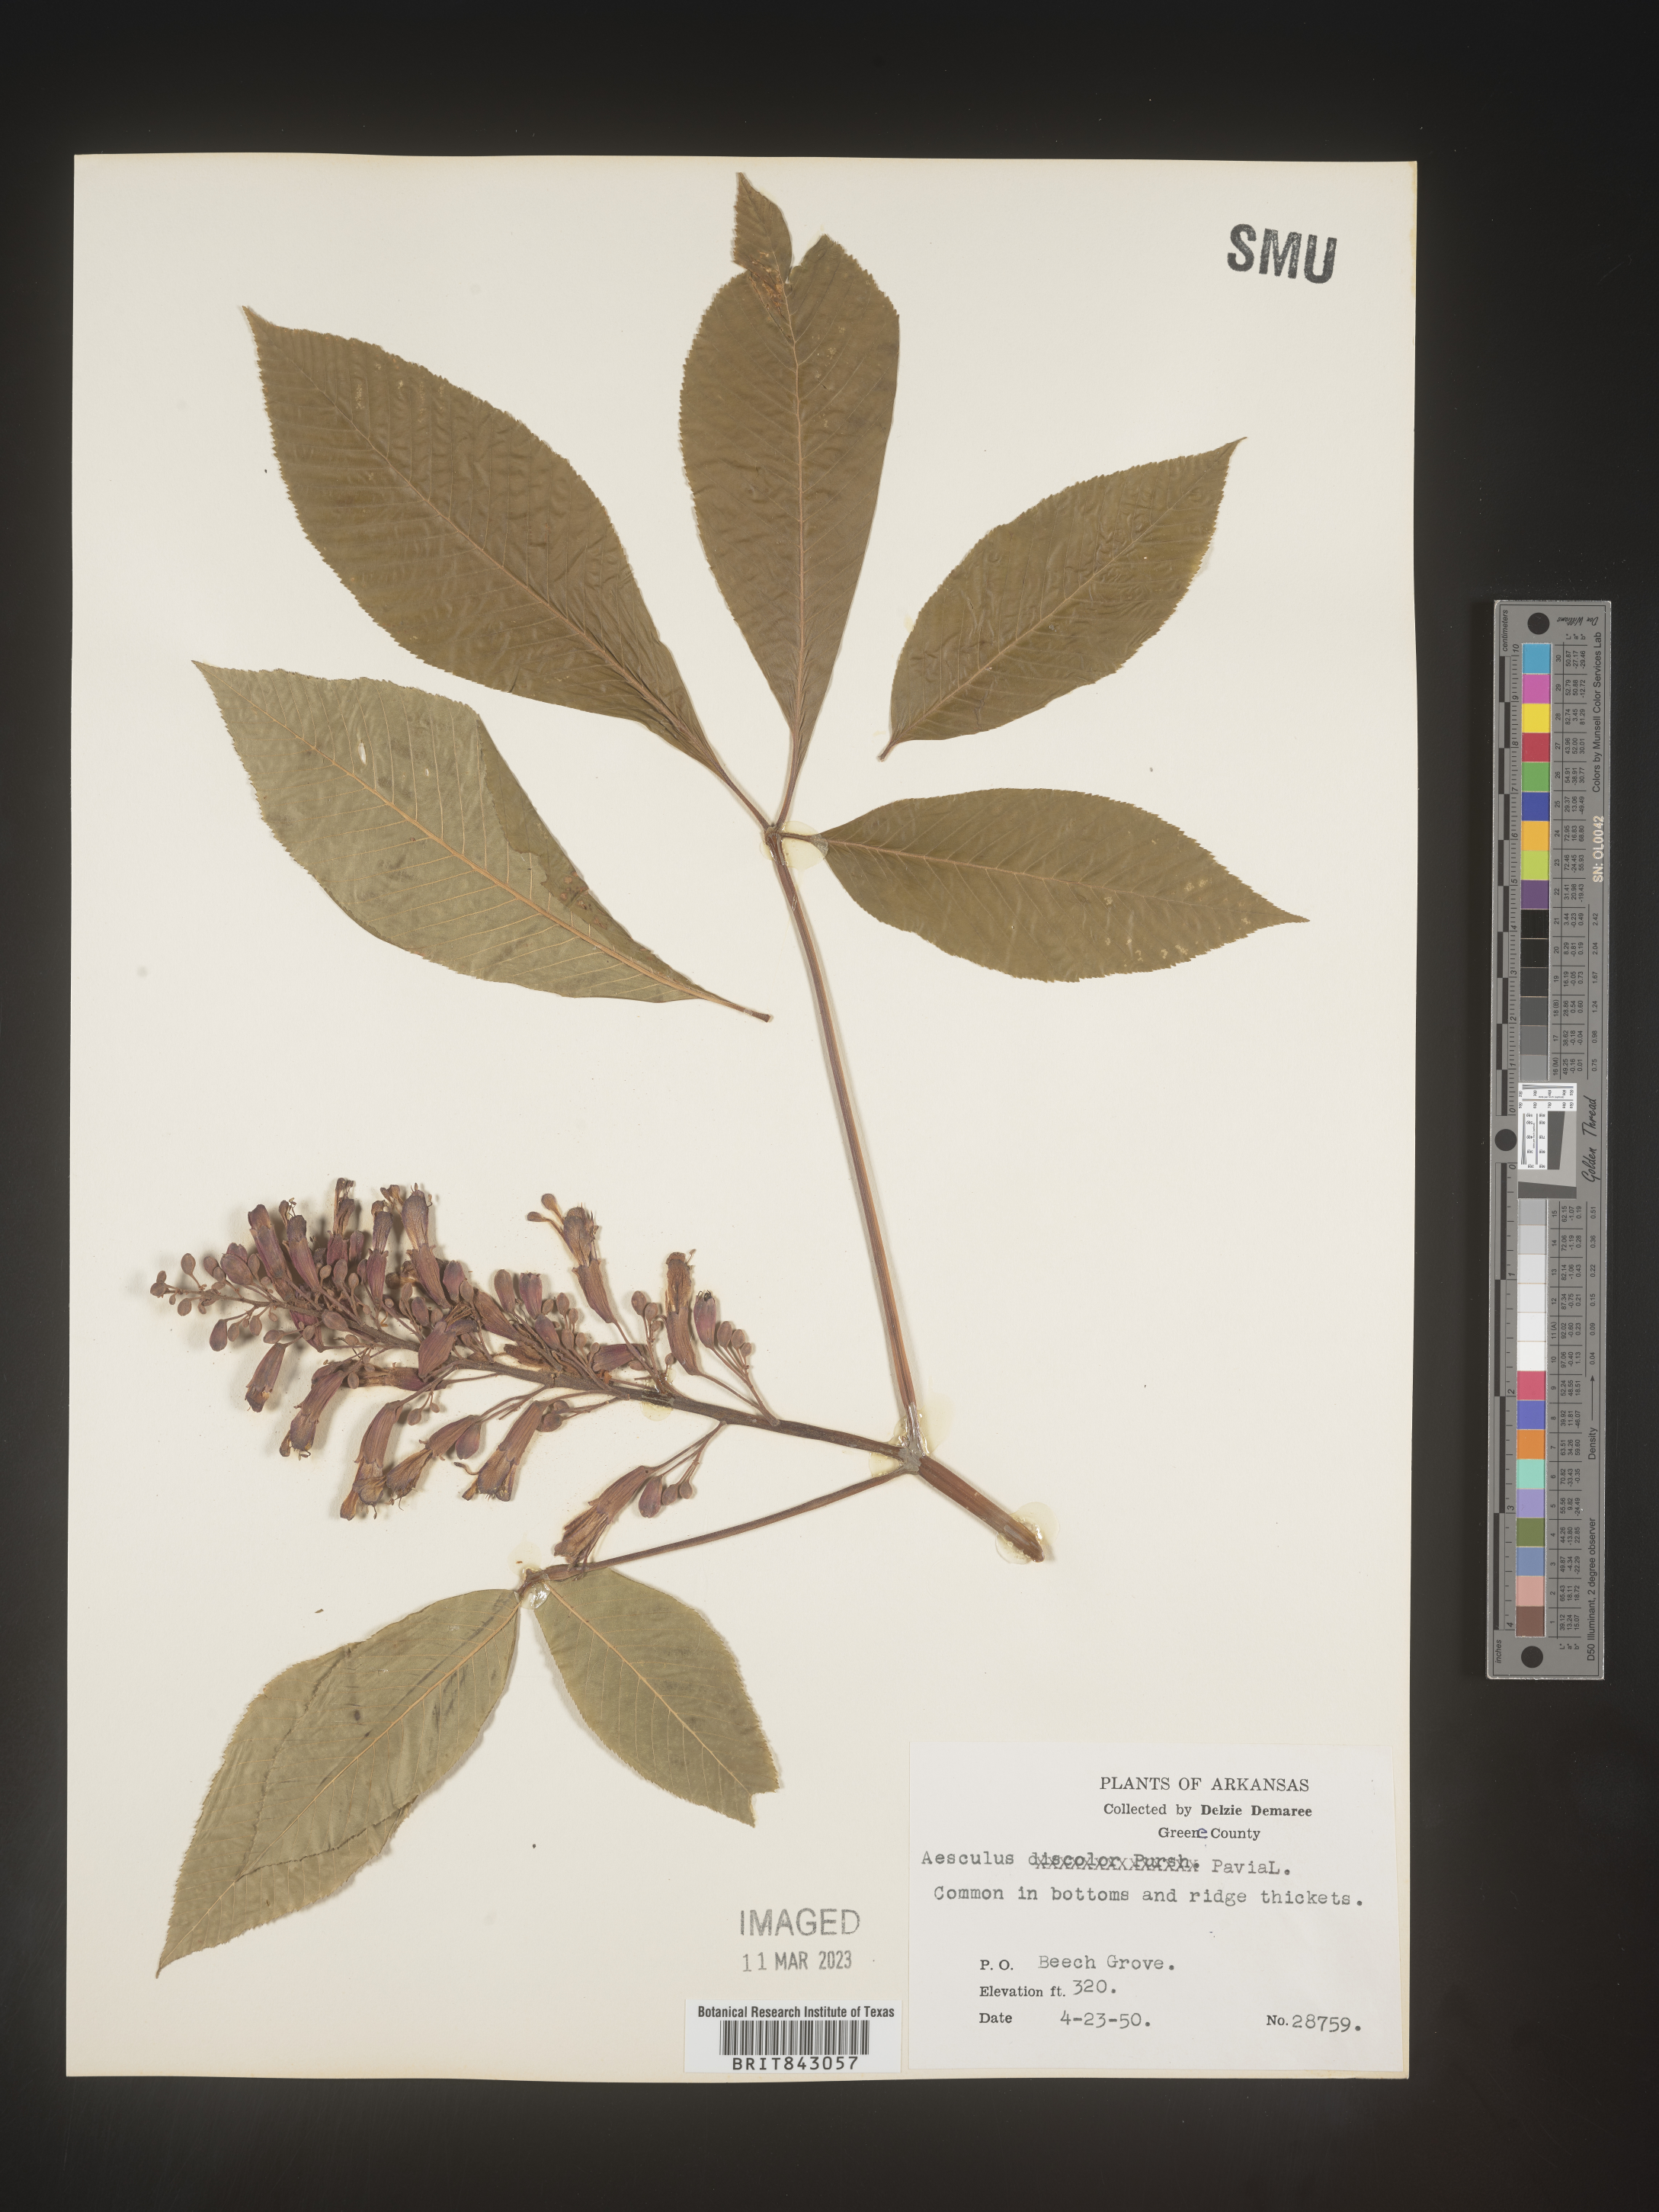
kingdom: Plantae
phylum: Tracheophyta
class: Magnoliopsida
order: Sapindales
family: Sapindaceae
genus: Aesculus
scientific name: Aesculus pavia
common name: Red buckeye
